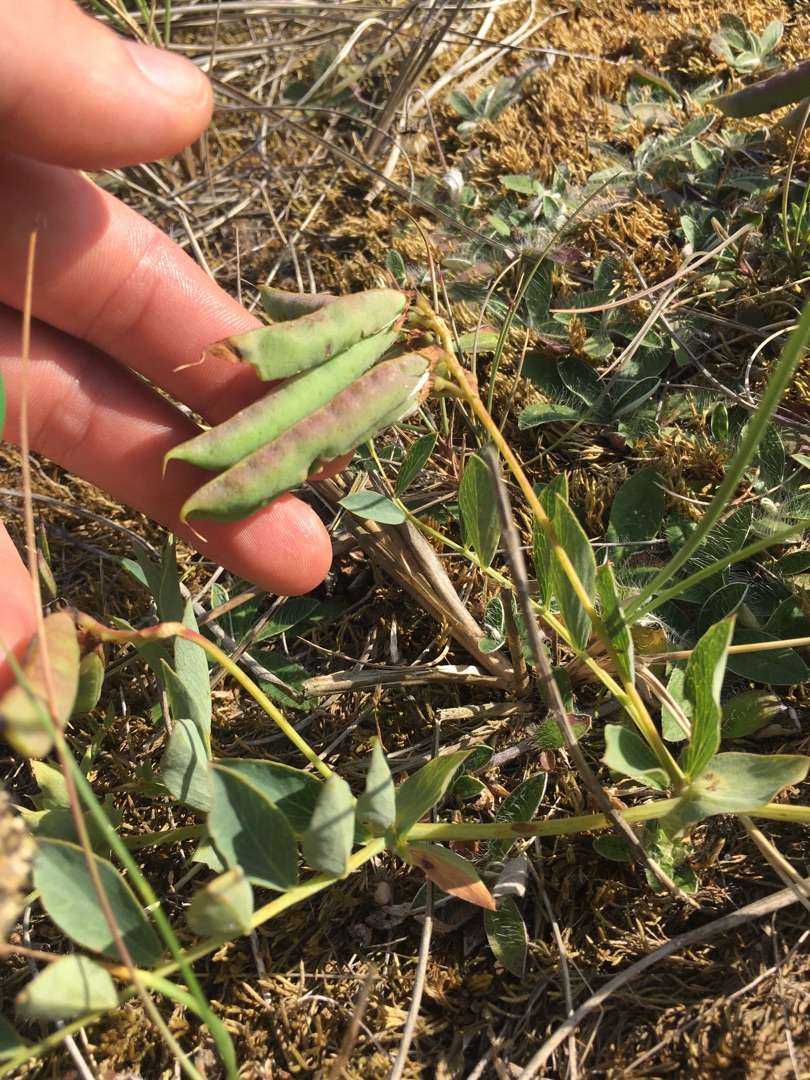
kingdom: Plantae
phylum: Tracheophyta
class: Magnoliopsida
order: Fabales
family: Fabaceae
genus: Lathyrus
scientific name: Lathyrus japonicus
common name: Strand-fladbælg
